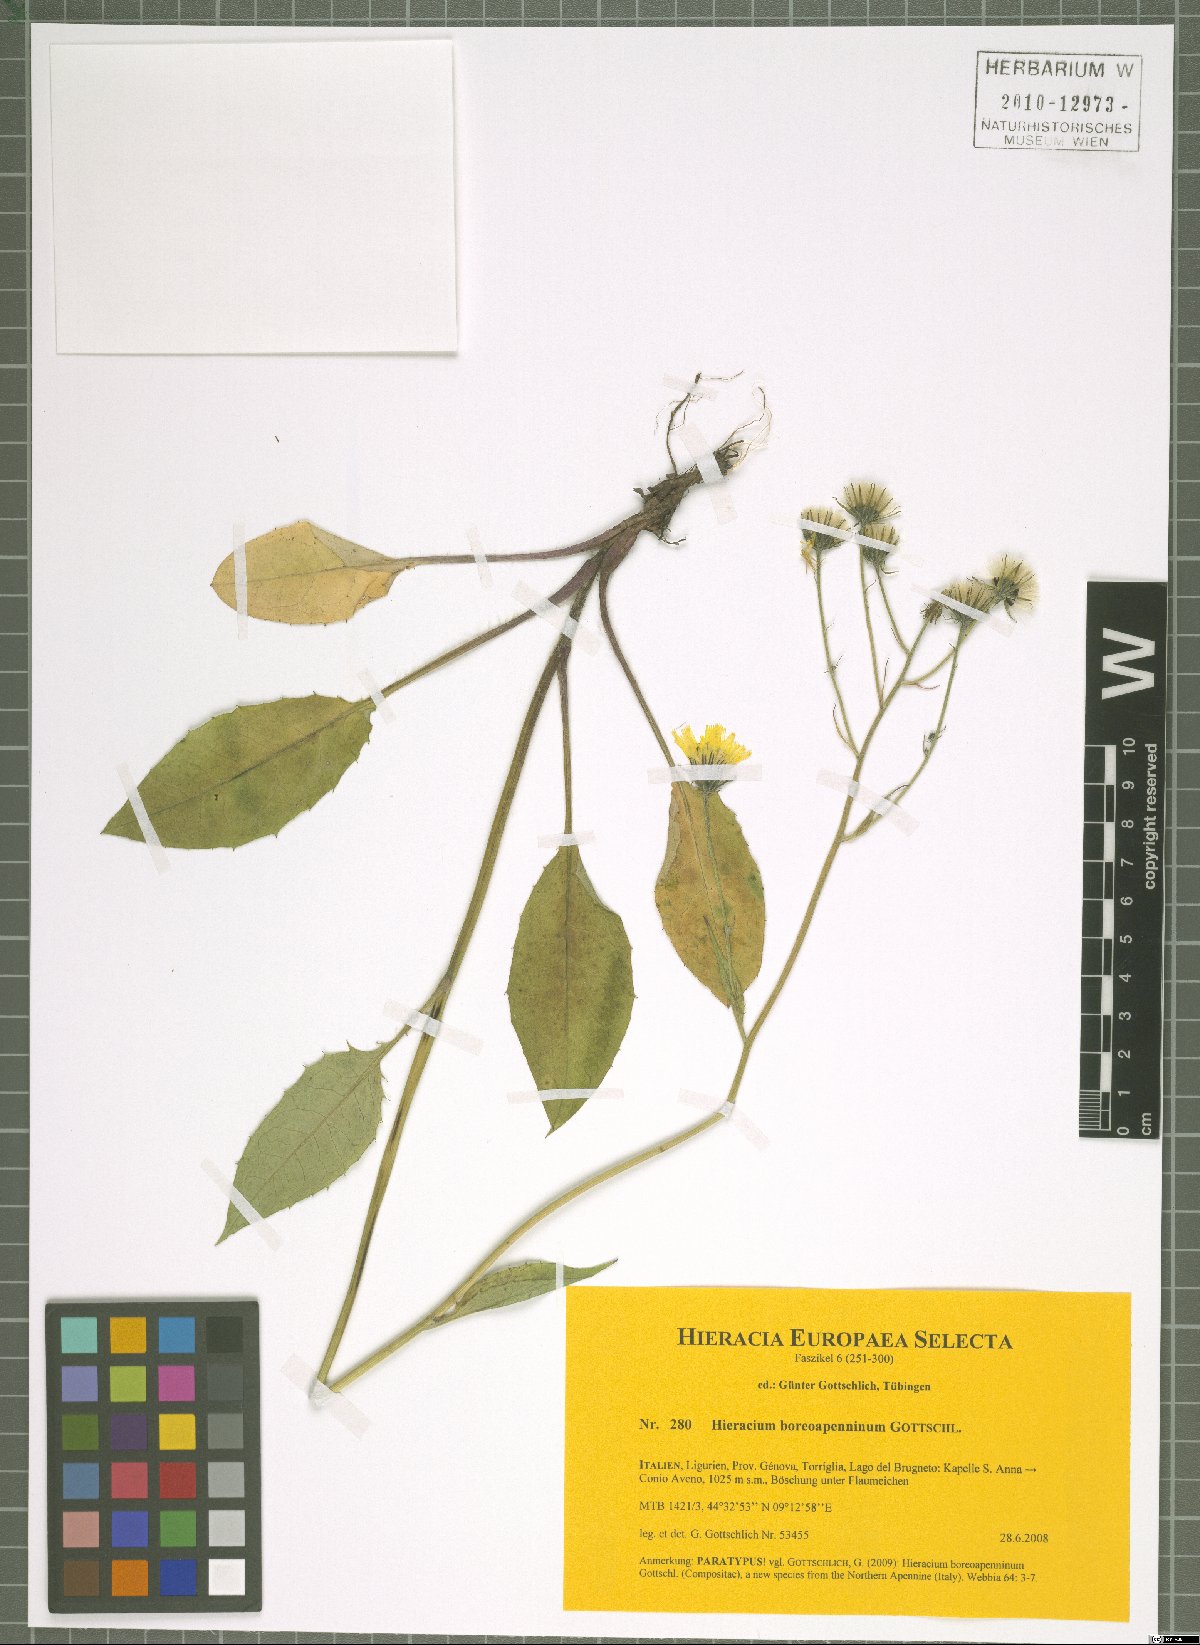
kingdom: Plantae
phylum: Tracheophyta
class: Magnoliopsida
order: Asterales
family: Asteraceae
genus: Hieracium
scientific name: Hieracium boreoapenninum
